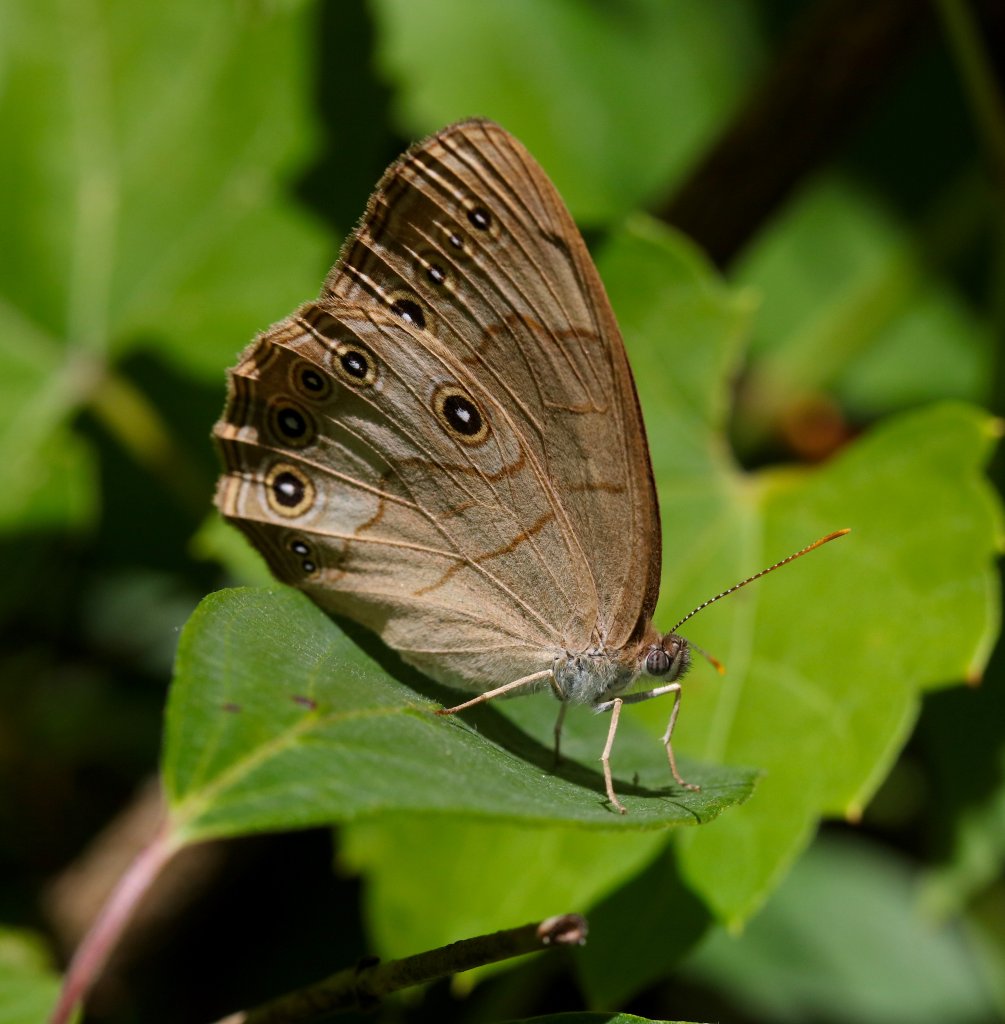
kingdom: Animalia
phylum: Arthropoda
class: Insecta
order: Lepidoptera
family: Nymphalidae
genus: Lethe
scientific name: Lethe eurydice
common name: Appalachian Eyed Brown
